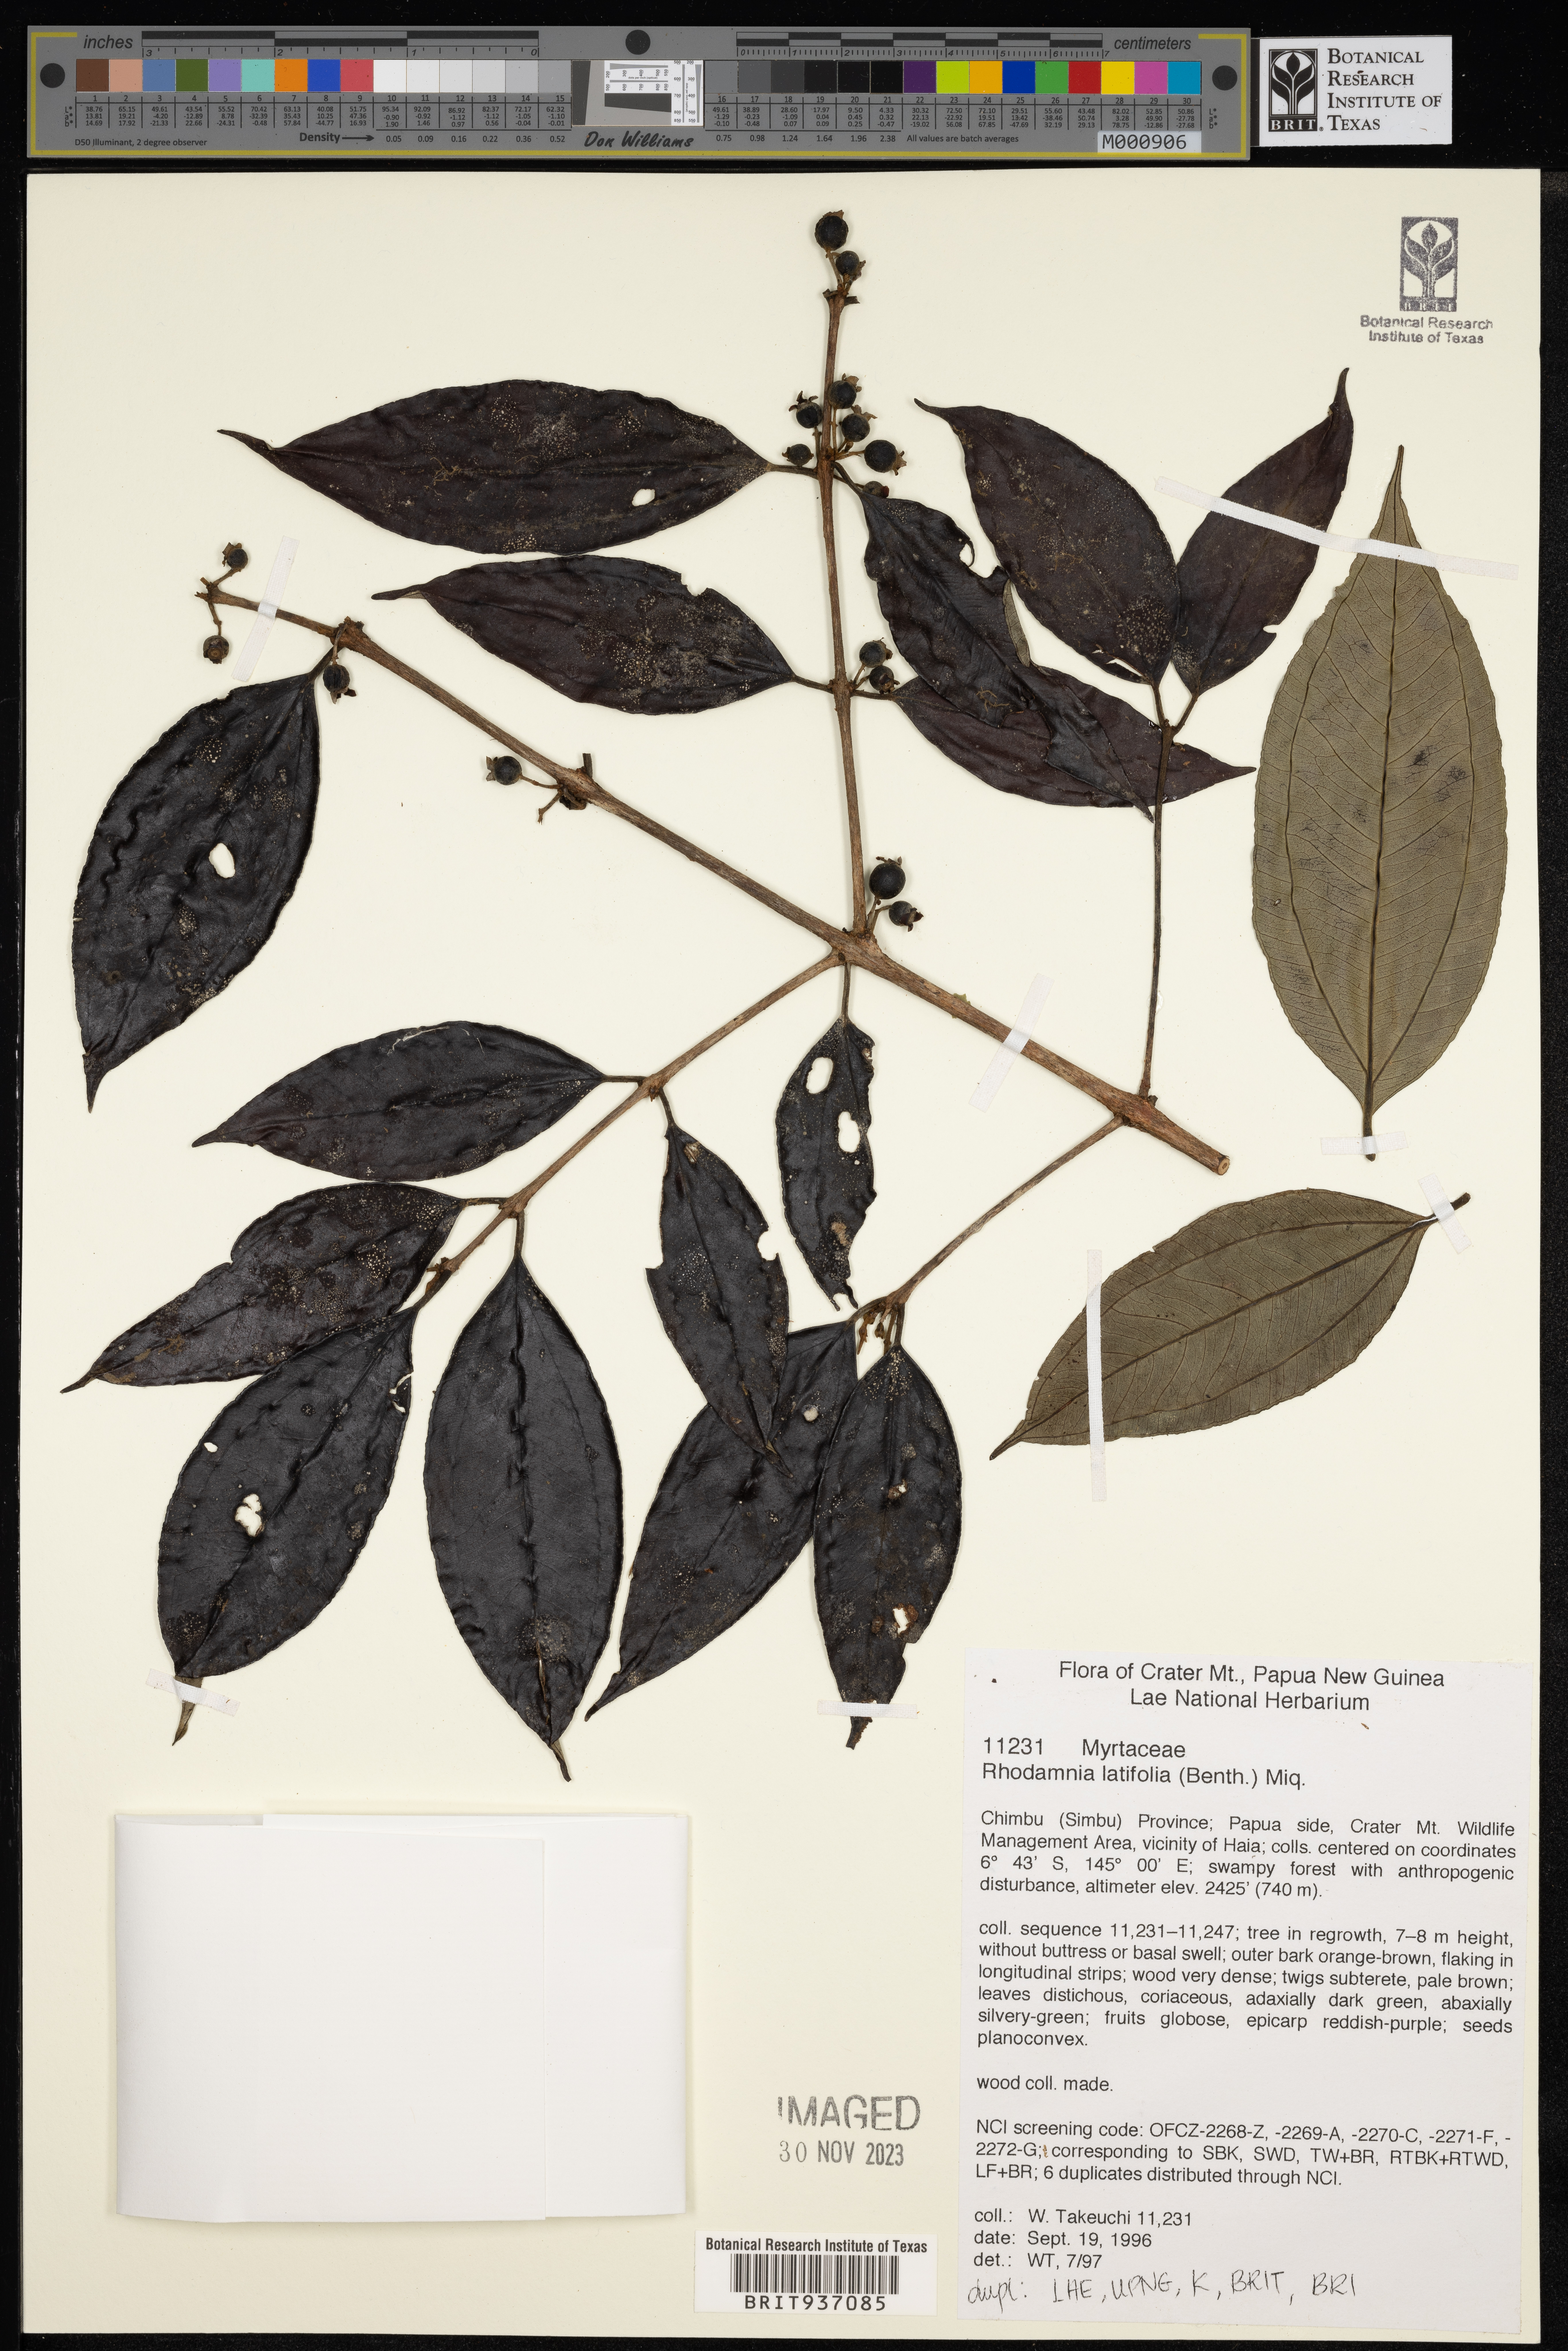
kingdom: Plantae
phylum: Tracheophyta
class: Magnoliopsida
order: Myrtales
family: Myrtaceae
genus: Rhodamnia
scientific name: Rhodamnia
